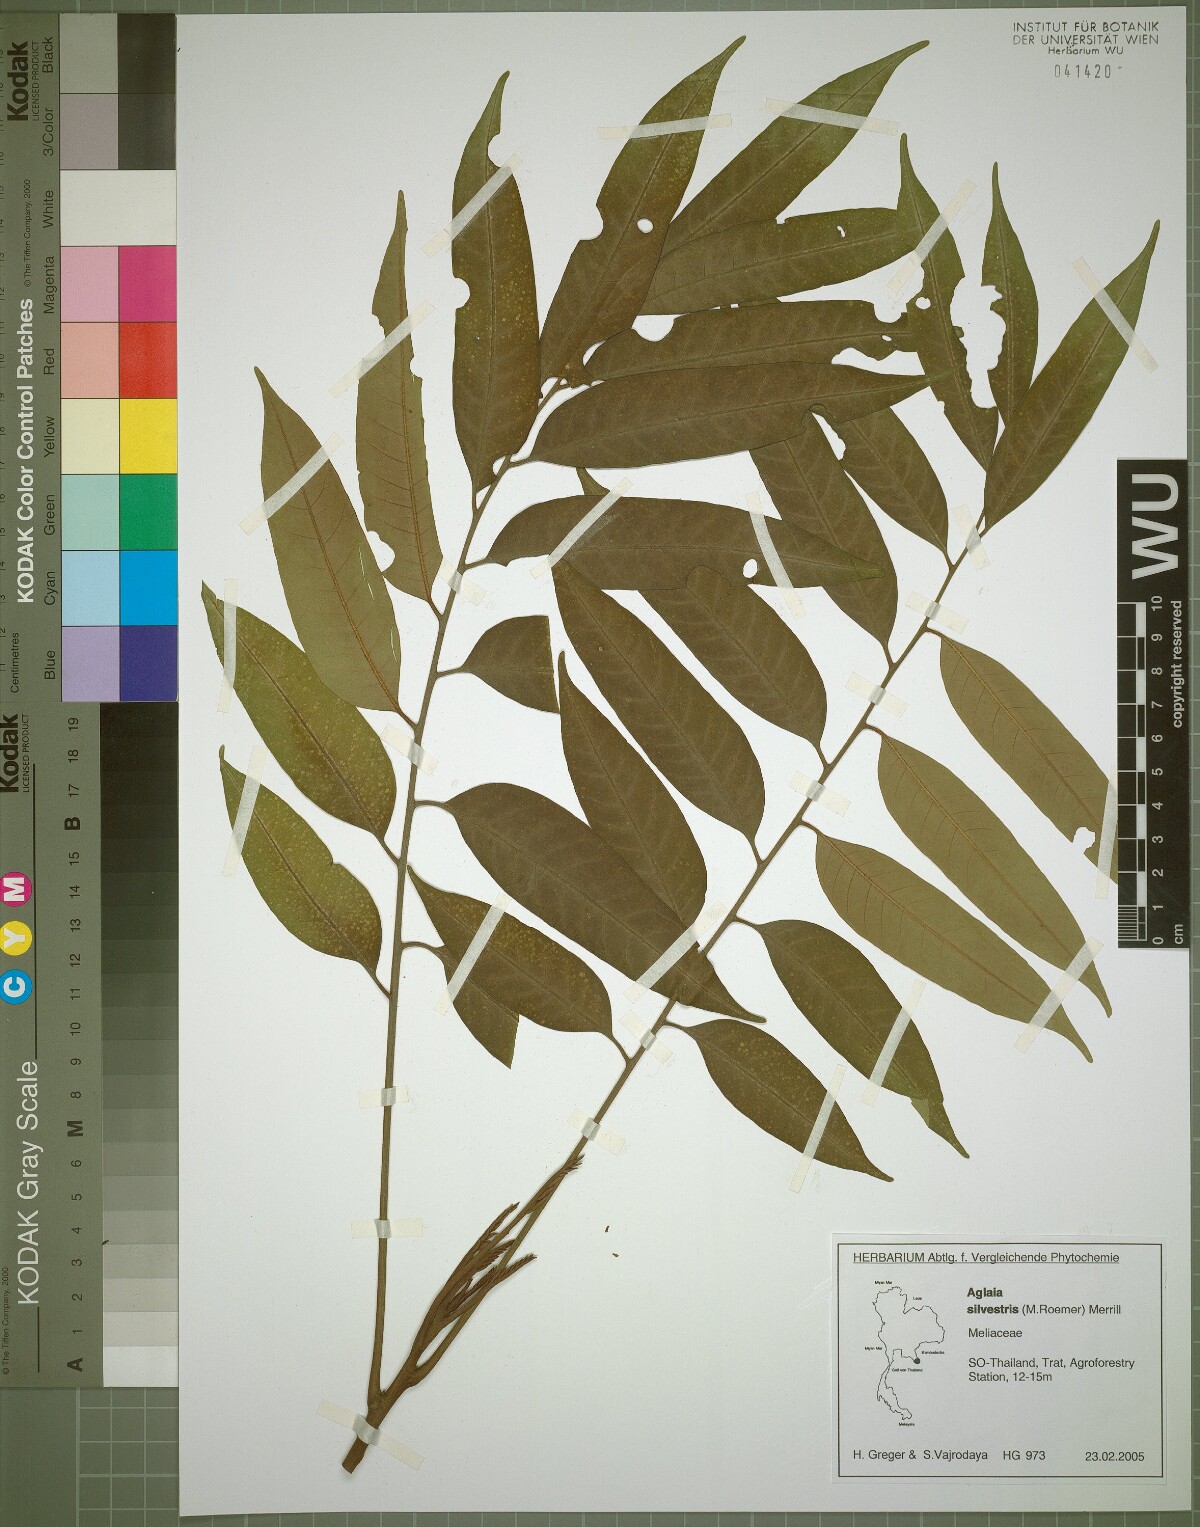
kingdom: Plantae
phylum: Tracheophyta
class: Magnoliopsida
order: Sapindales
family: Meliaceae
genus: Aglaia
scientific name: Aglaia silvestris
